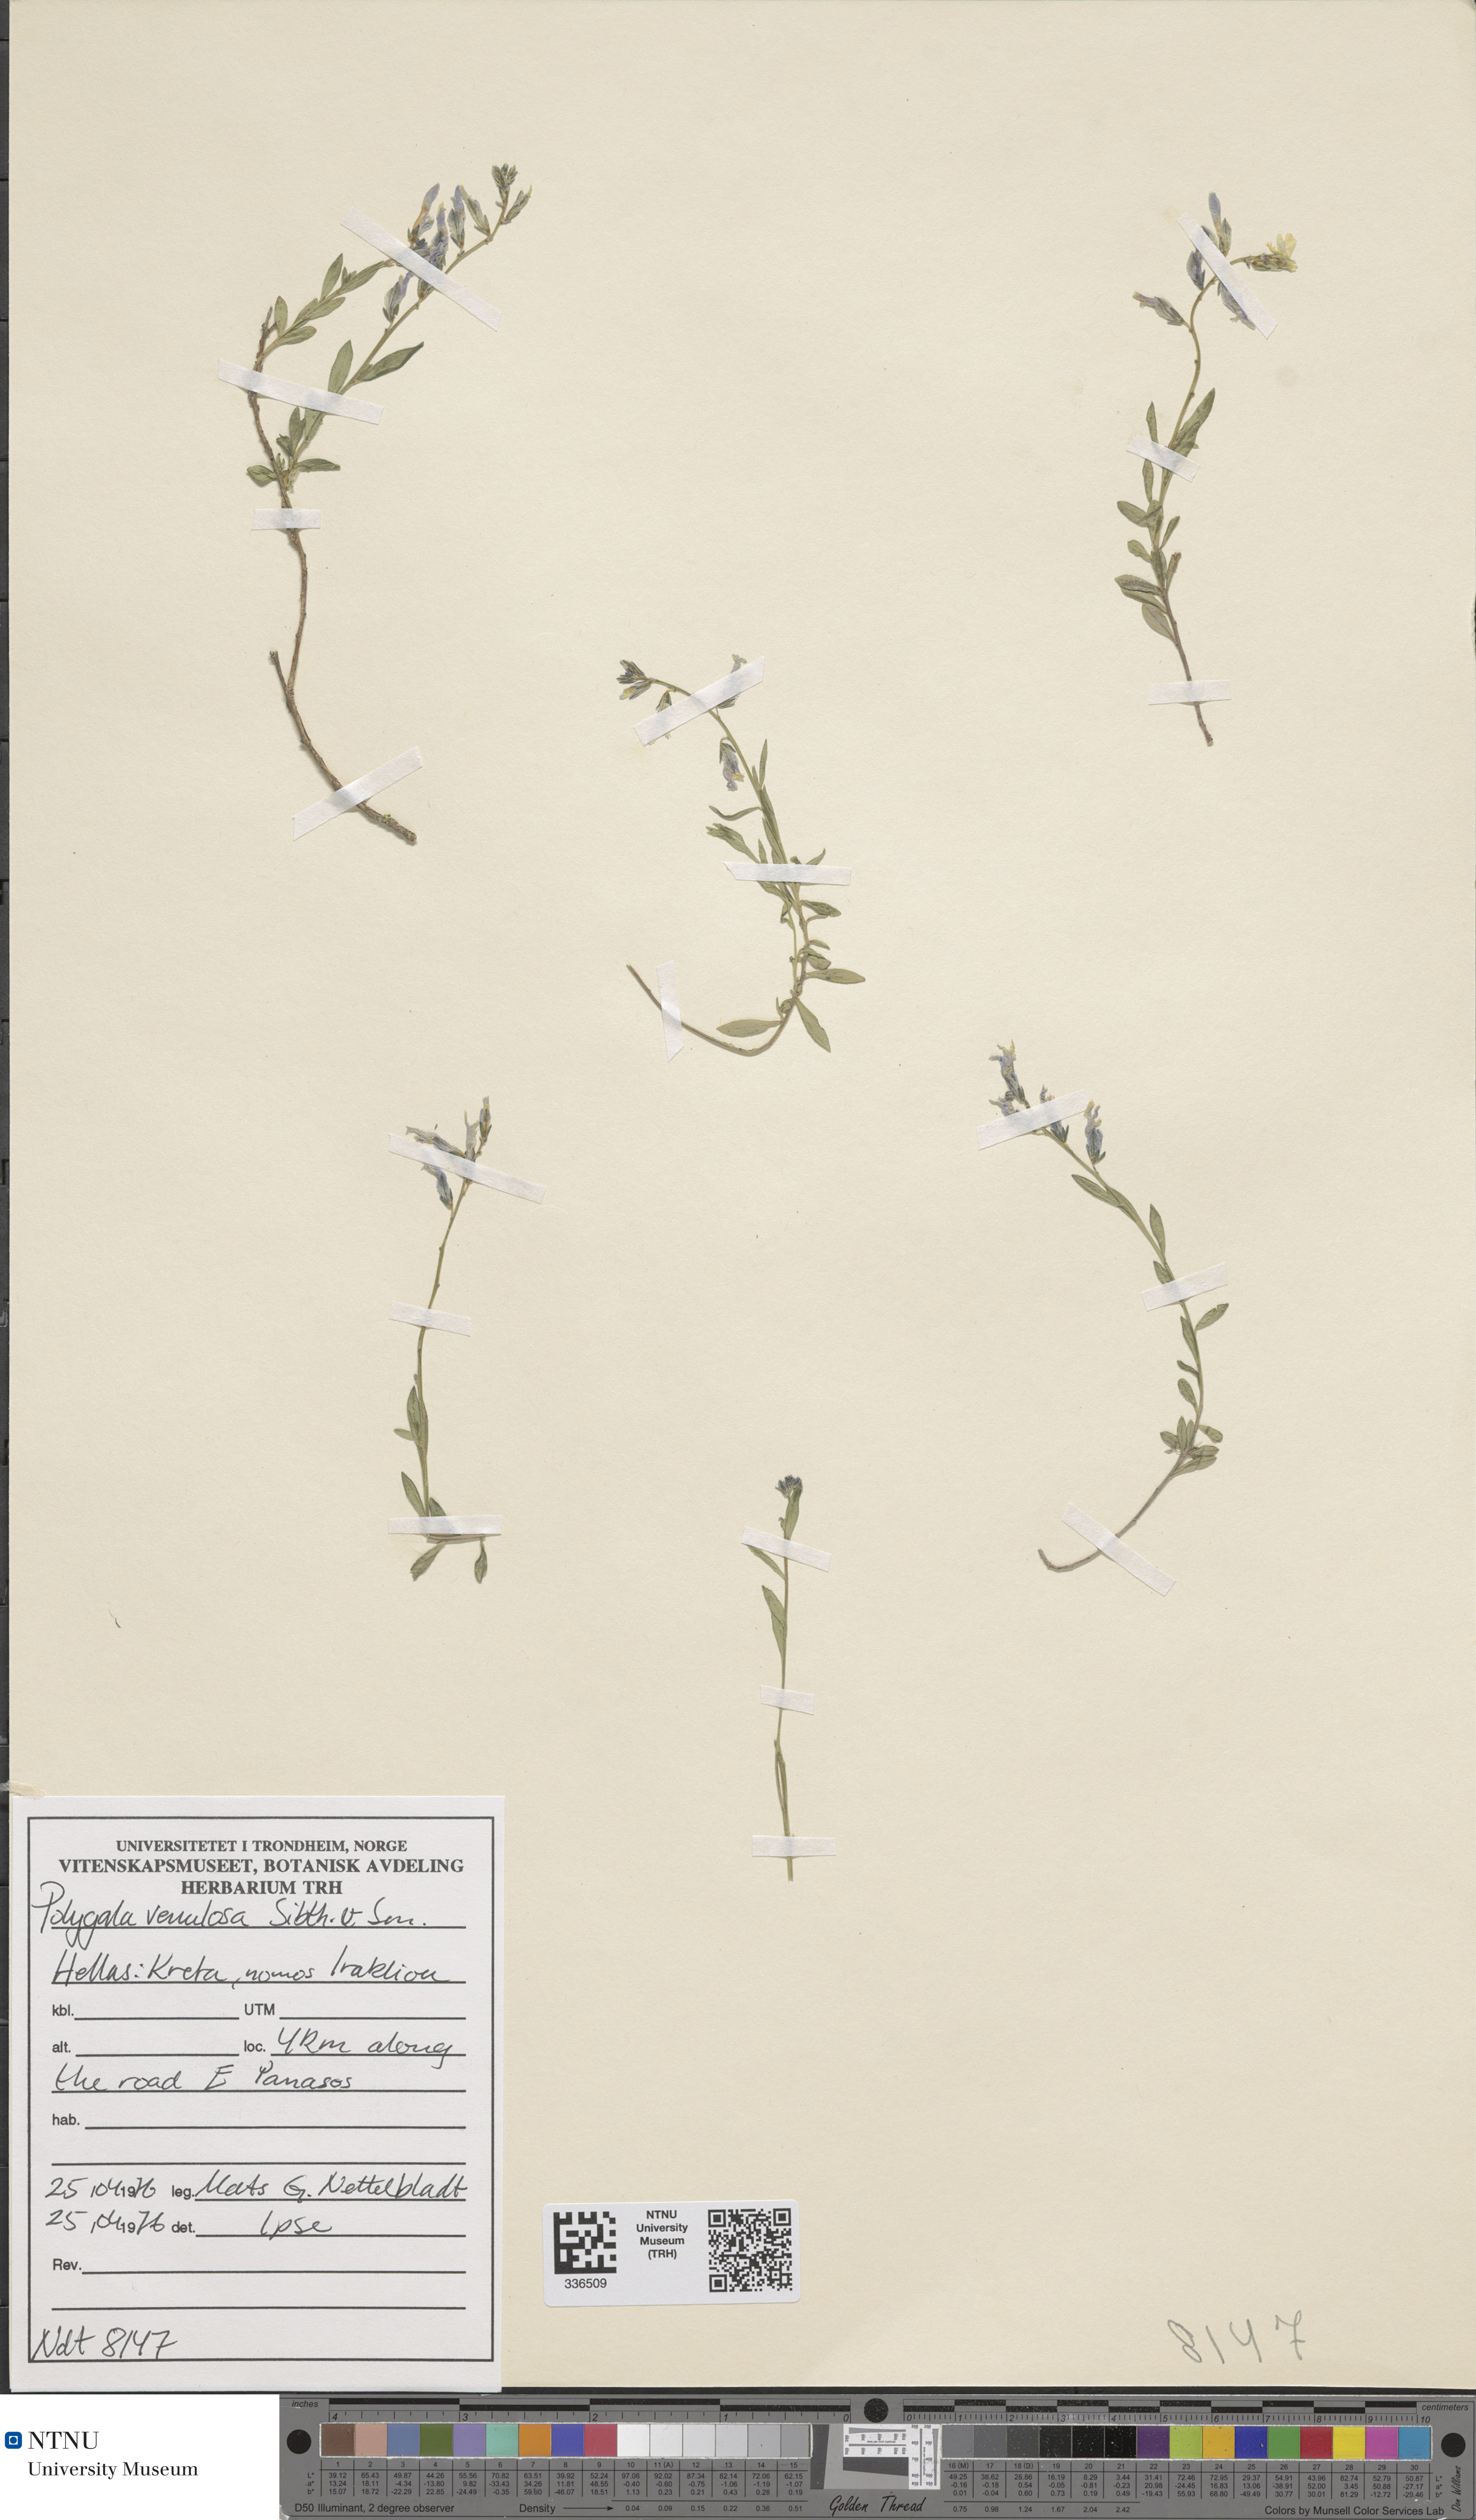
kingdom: Plantae
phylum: Tracheophyta
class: Magnoliopsida
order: Fabales
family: Polygalaceae
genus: Polygala
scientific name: Polygala venulosa
